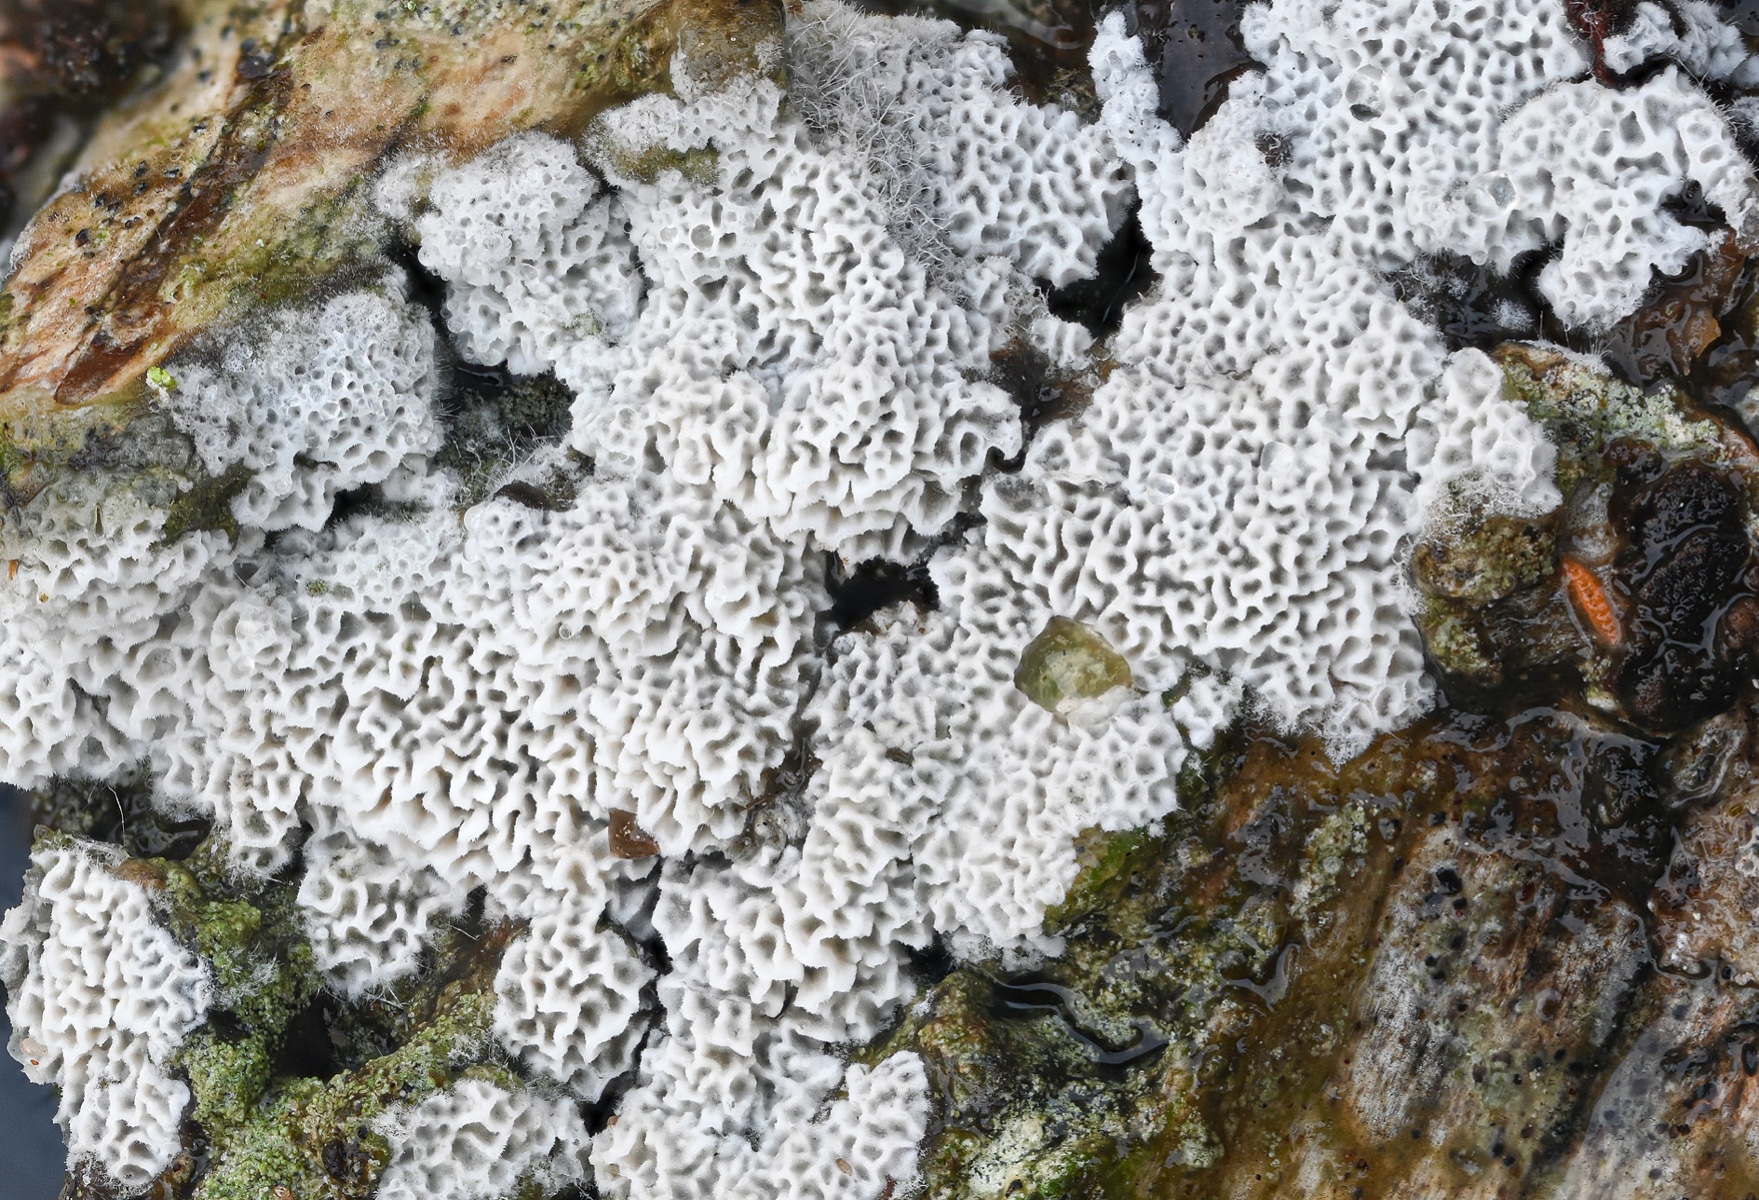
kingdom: Fungi
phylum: Basidiomycota
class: Agaricomycetes
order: Cantharellales
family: Hydnaceae
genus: Sistotrema
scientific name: Sistotrema albopallescens
